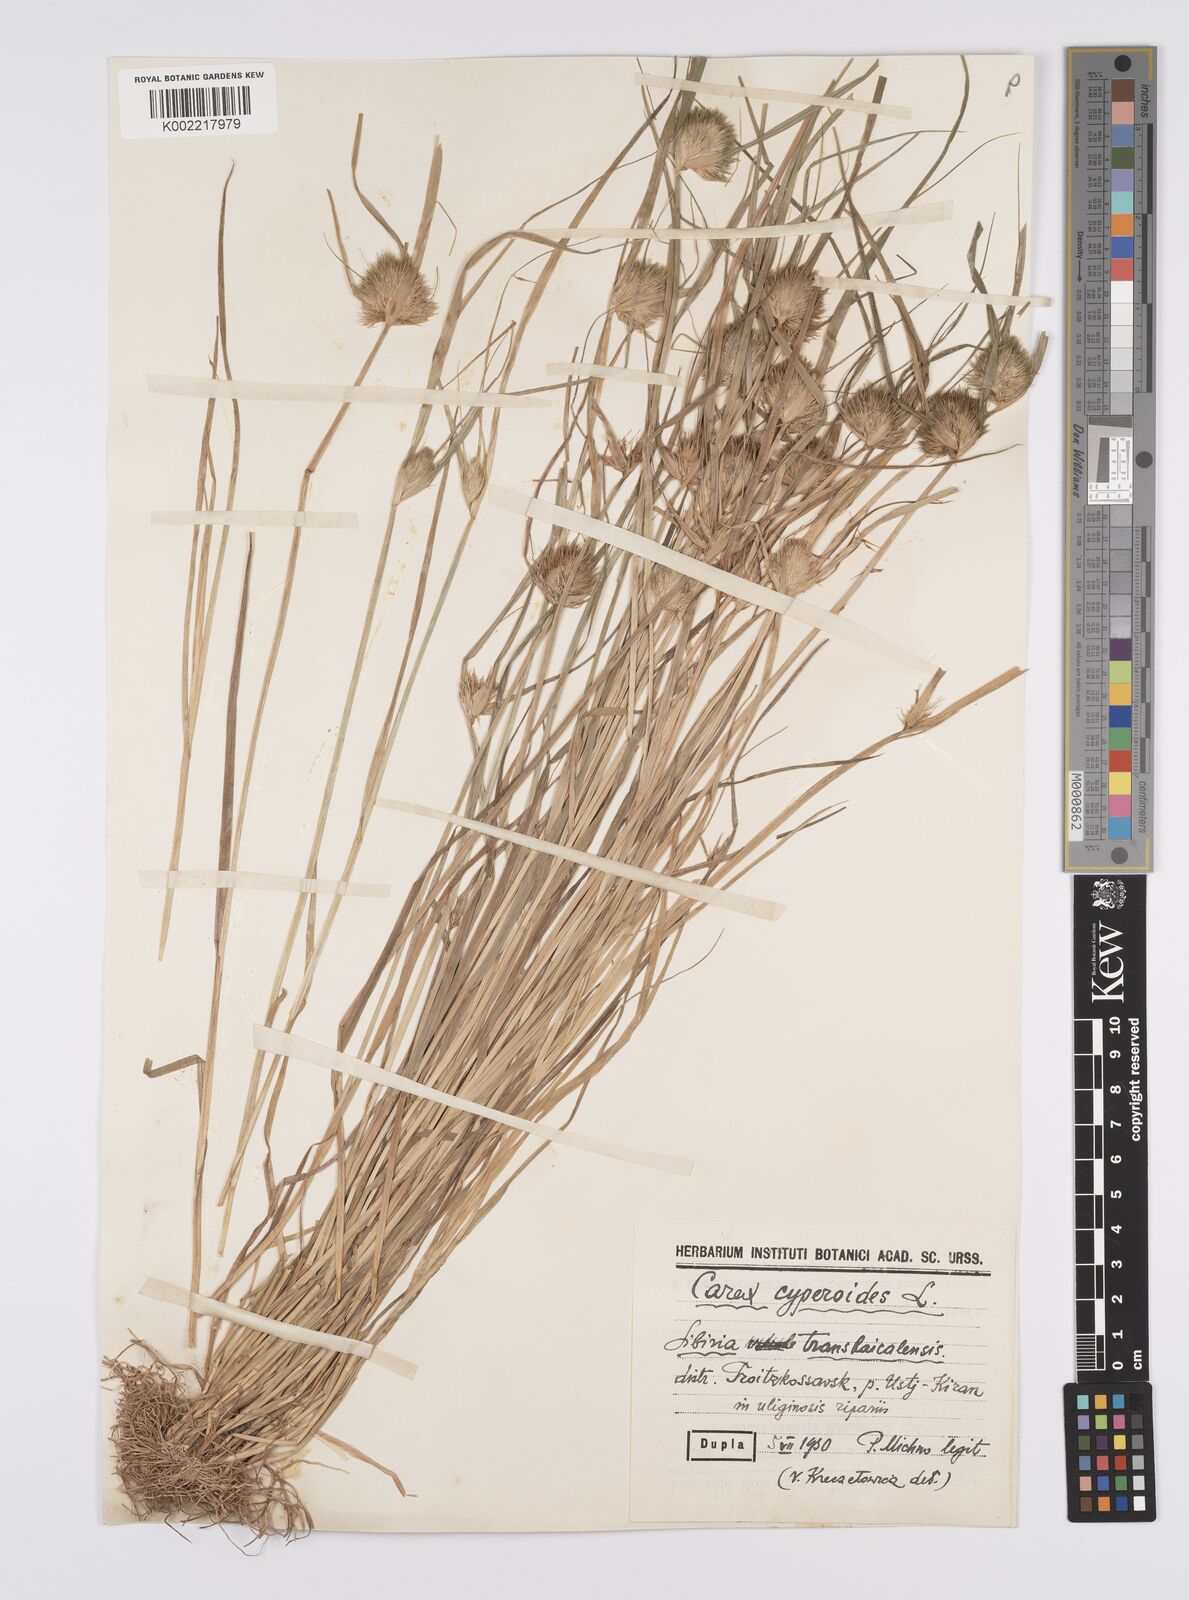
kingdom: Plantae
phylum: Tracheophyta
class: Liliopsida
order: Poales
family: Cyperaceae
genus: Carex
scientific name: Carex bohemica
